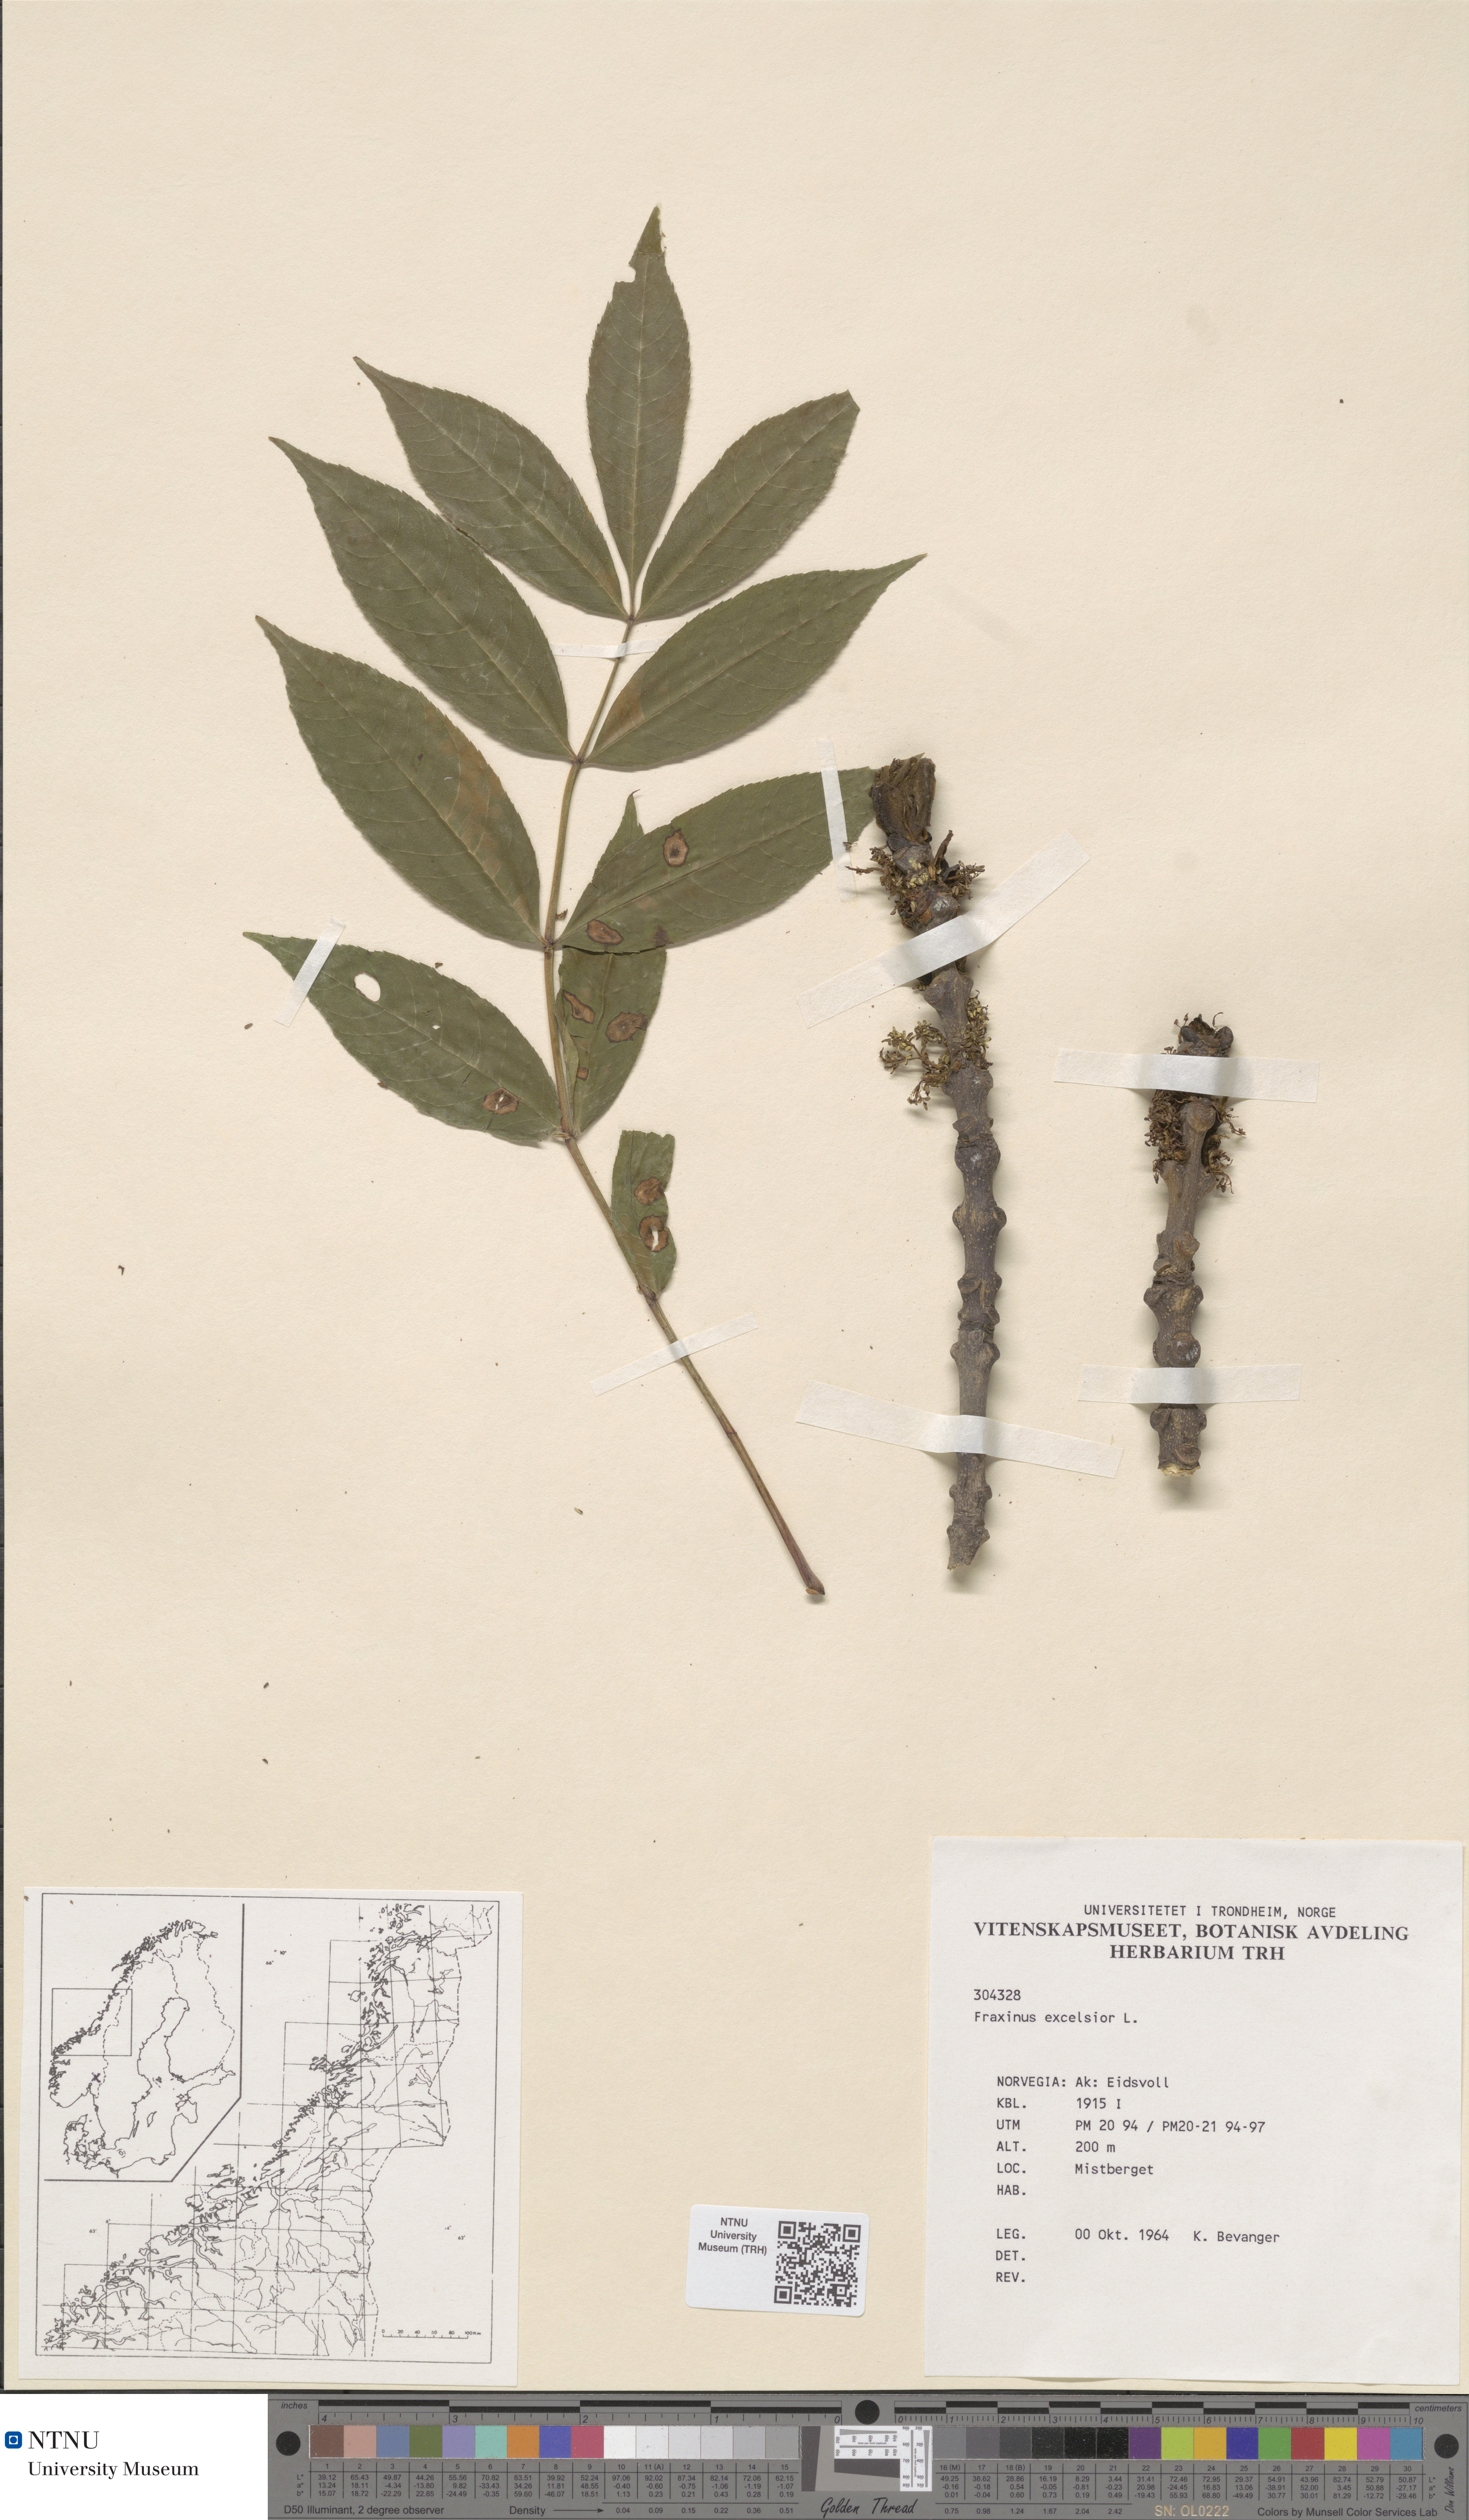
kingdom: Plantae
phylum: Tracheophyta
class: Magnoliopsida
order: Lamiales
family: Oleaceae
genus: Fraxinus
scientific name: Fraxinus excelsior
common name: European ash
